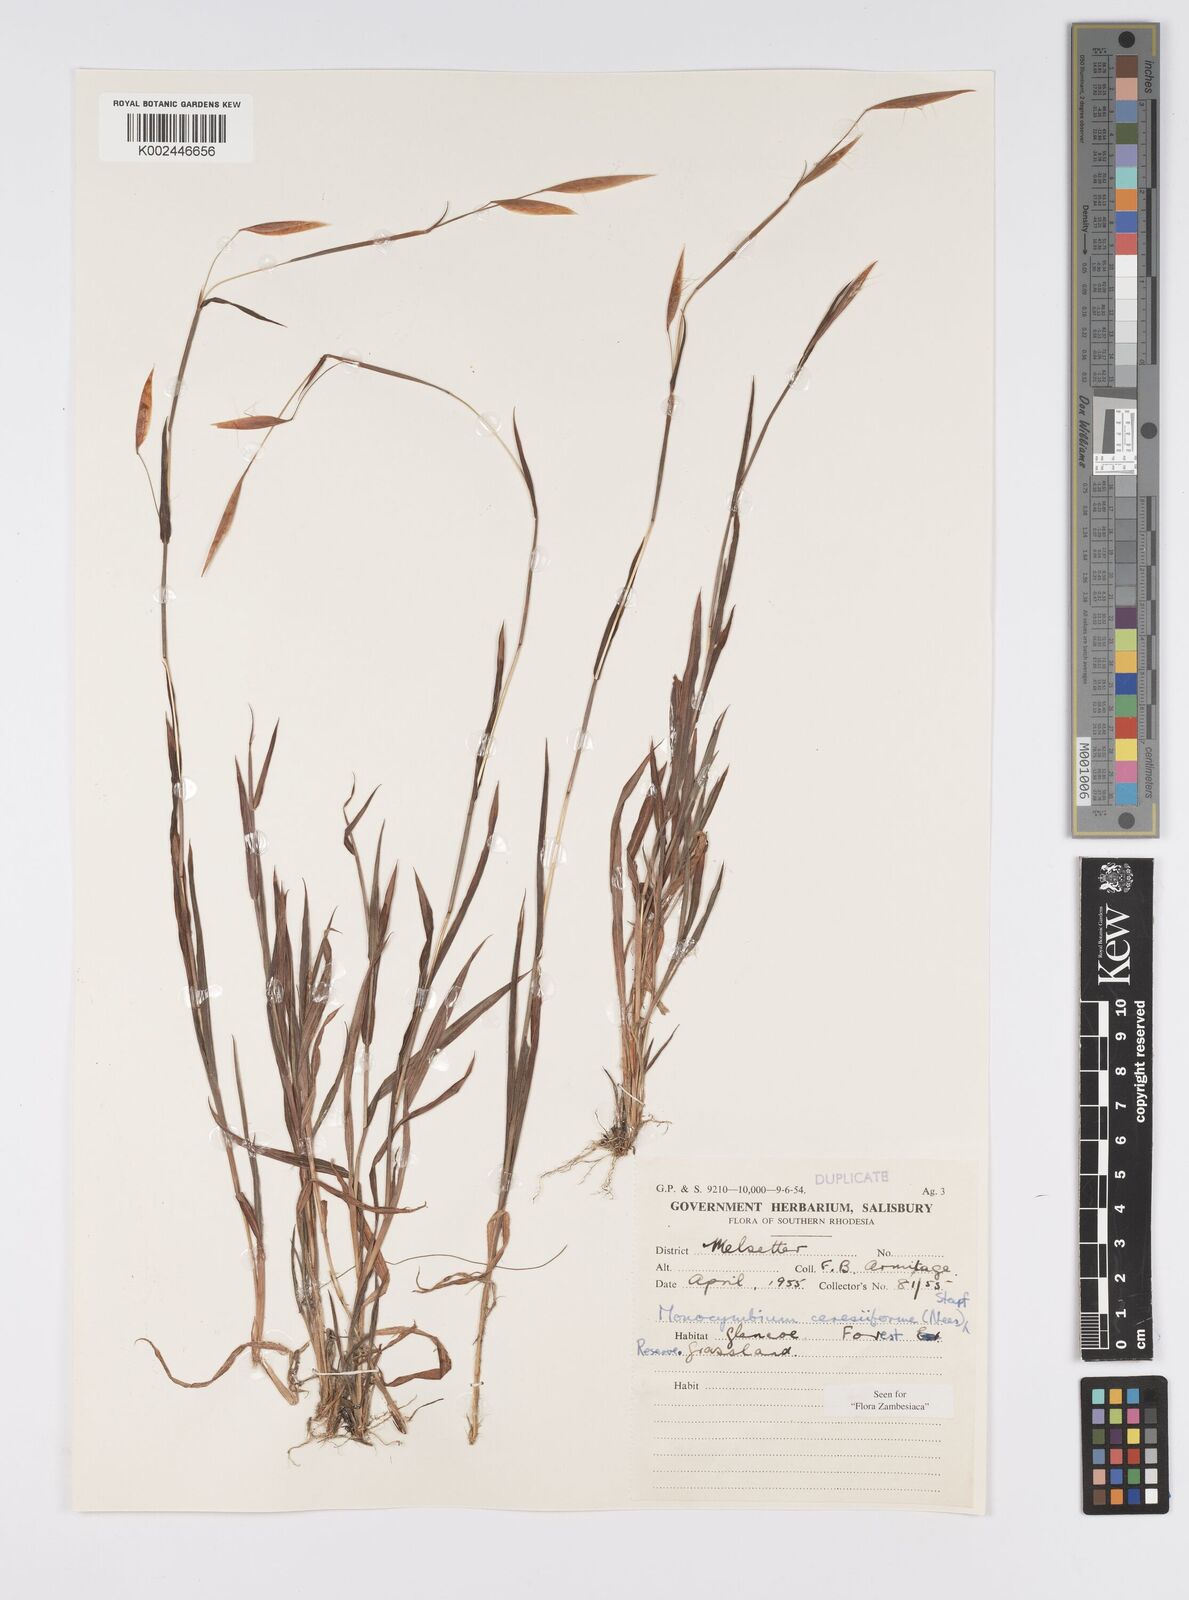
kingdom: Plantae
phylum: Tracheophyta
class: Liliopsida
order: Poales
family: Poaceae
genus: Monocymbium
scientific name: Monocymbium ceresiiforme
